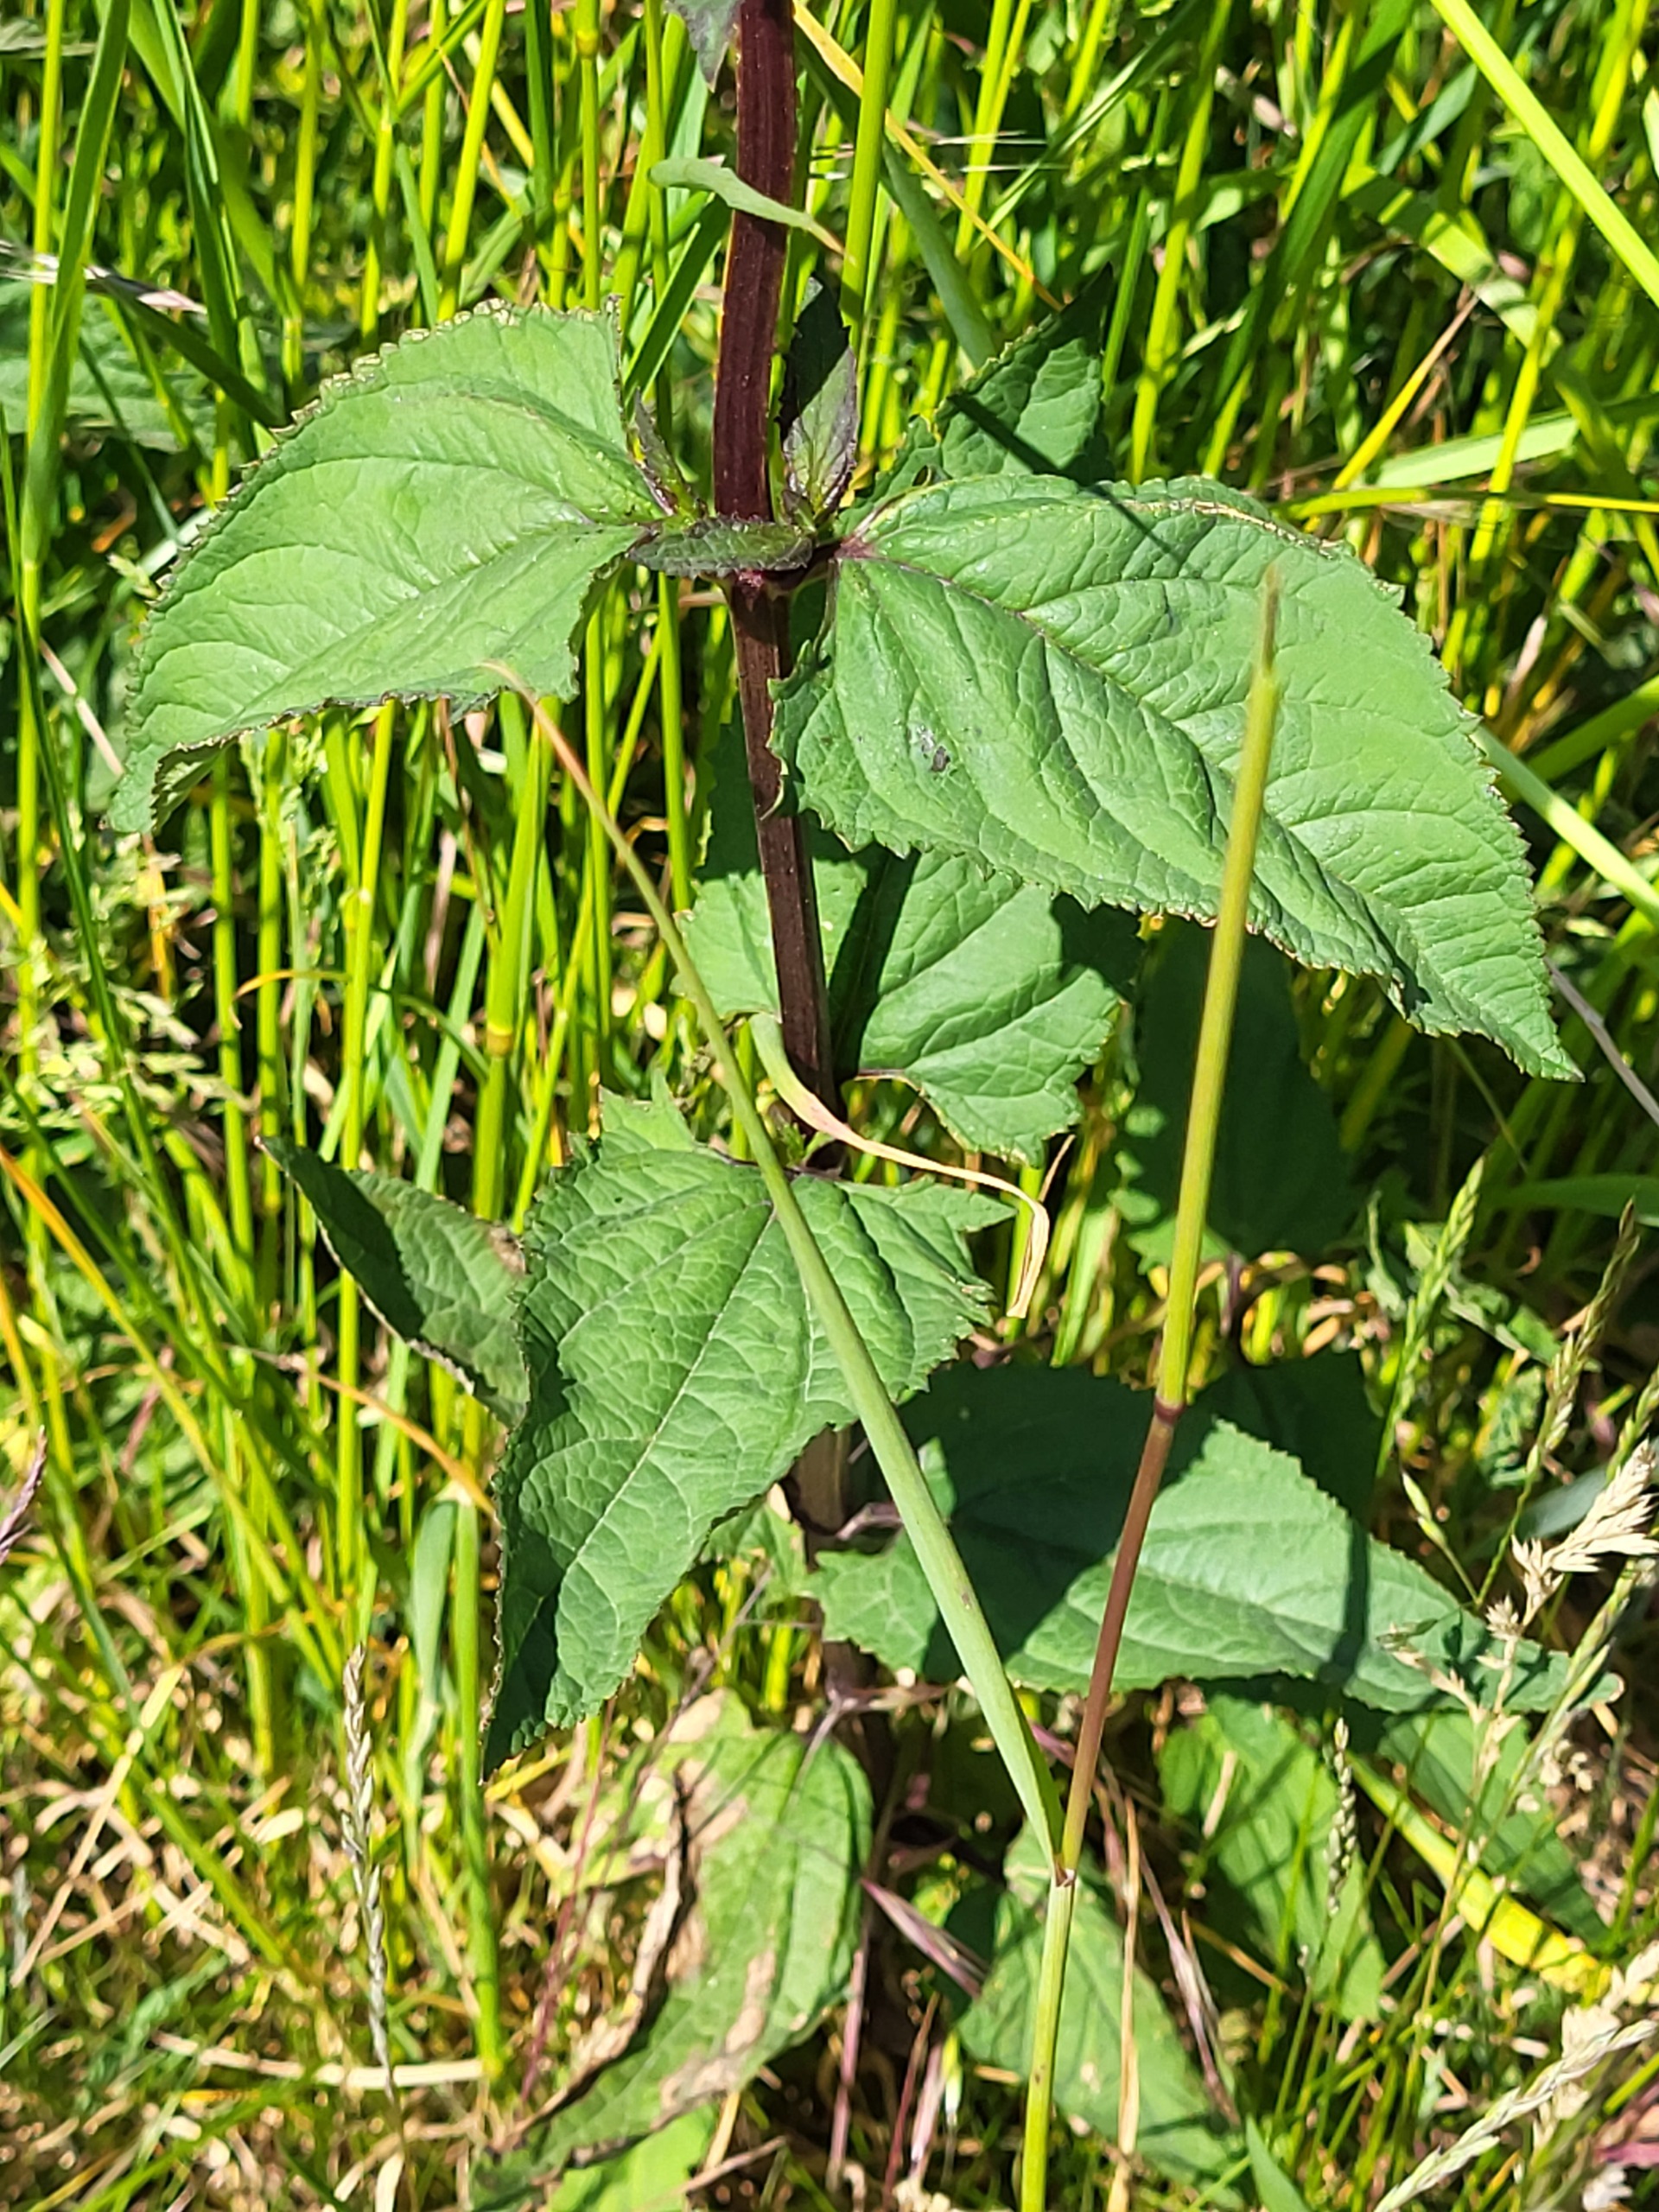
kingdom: Plantae
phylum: Tracheophyta
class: Magnoliopsida
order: Lamiales
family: Scrophulariaceae
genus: Scrophularia
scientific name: Scrophularia nodosa
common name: Knoldet brunrod
